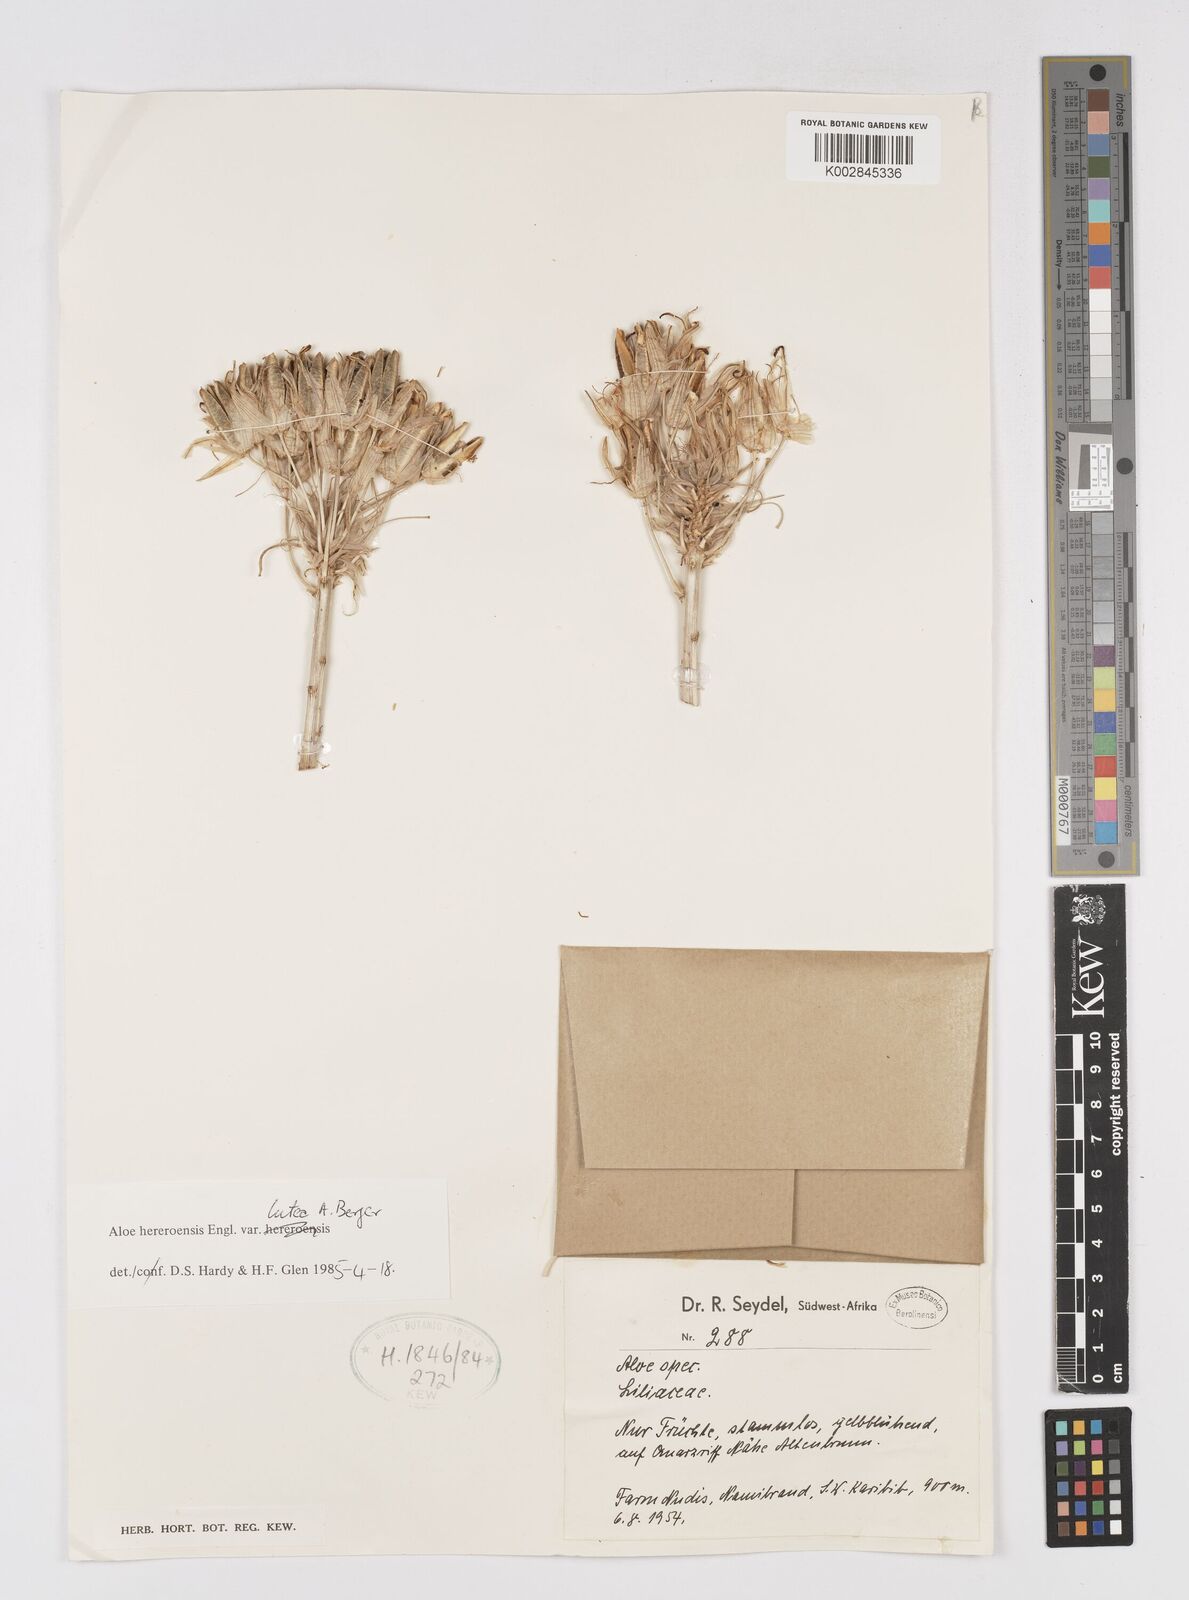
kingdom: Plantae
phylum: Tracheophyta
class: Liliopsida
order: Asparagales
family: Asphodelaceae
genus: Aloe
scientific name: Aloe hereroensis
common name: Herero aloe
